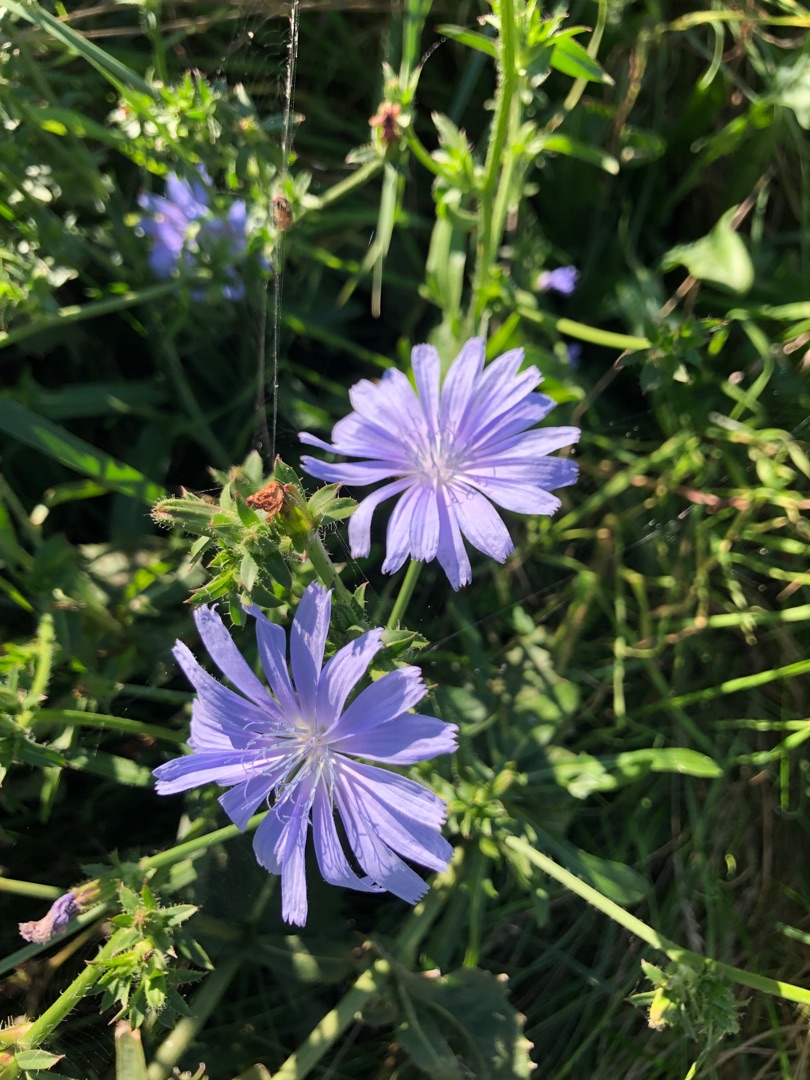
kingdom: Plantae
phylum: Tracheophyta
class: Magnoliopsida
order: Asterales
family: Asteraceae
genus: Cichorium
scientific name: Cichorium intybus
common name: Cikorie (varietet)
